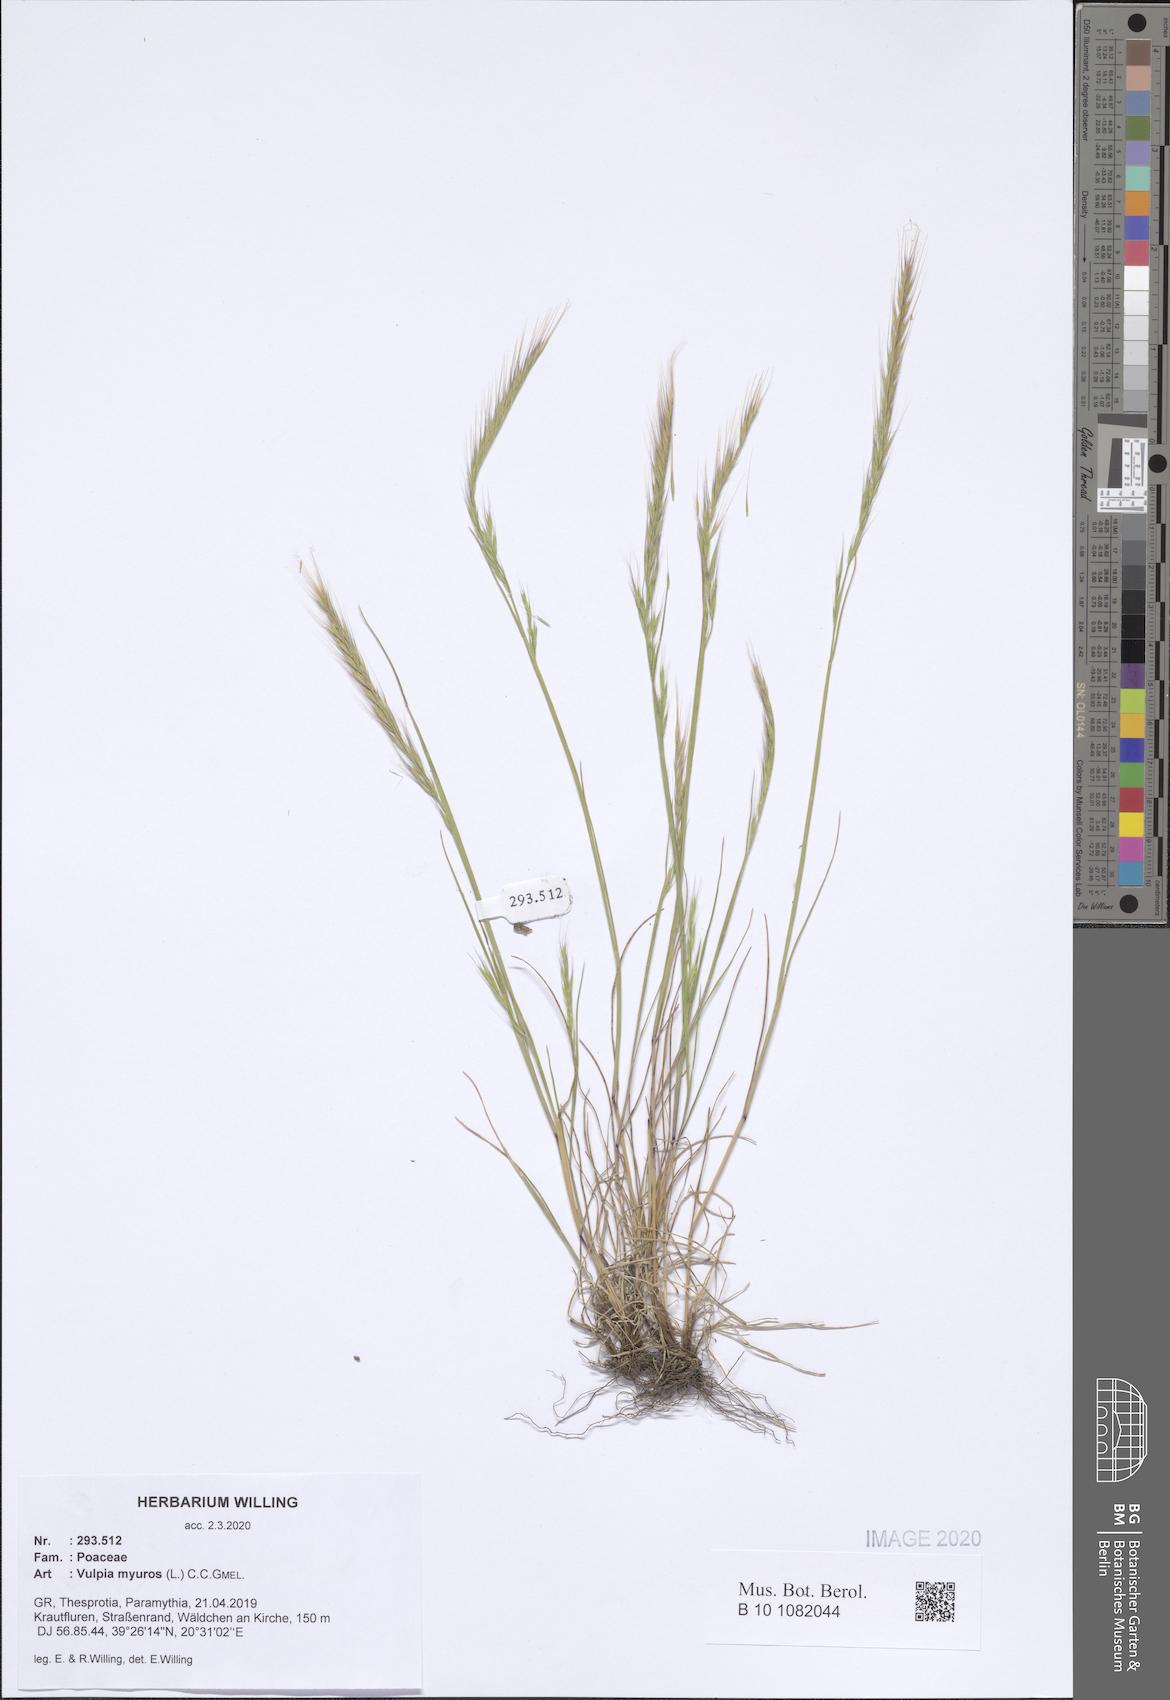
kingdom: Plantae
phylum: Tracheophyta
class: Liliopsida
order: Poales
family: Poaceae
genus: Festuca
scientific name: Festuca myuros
